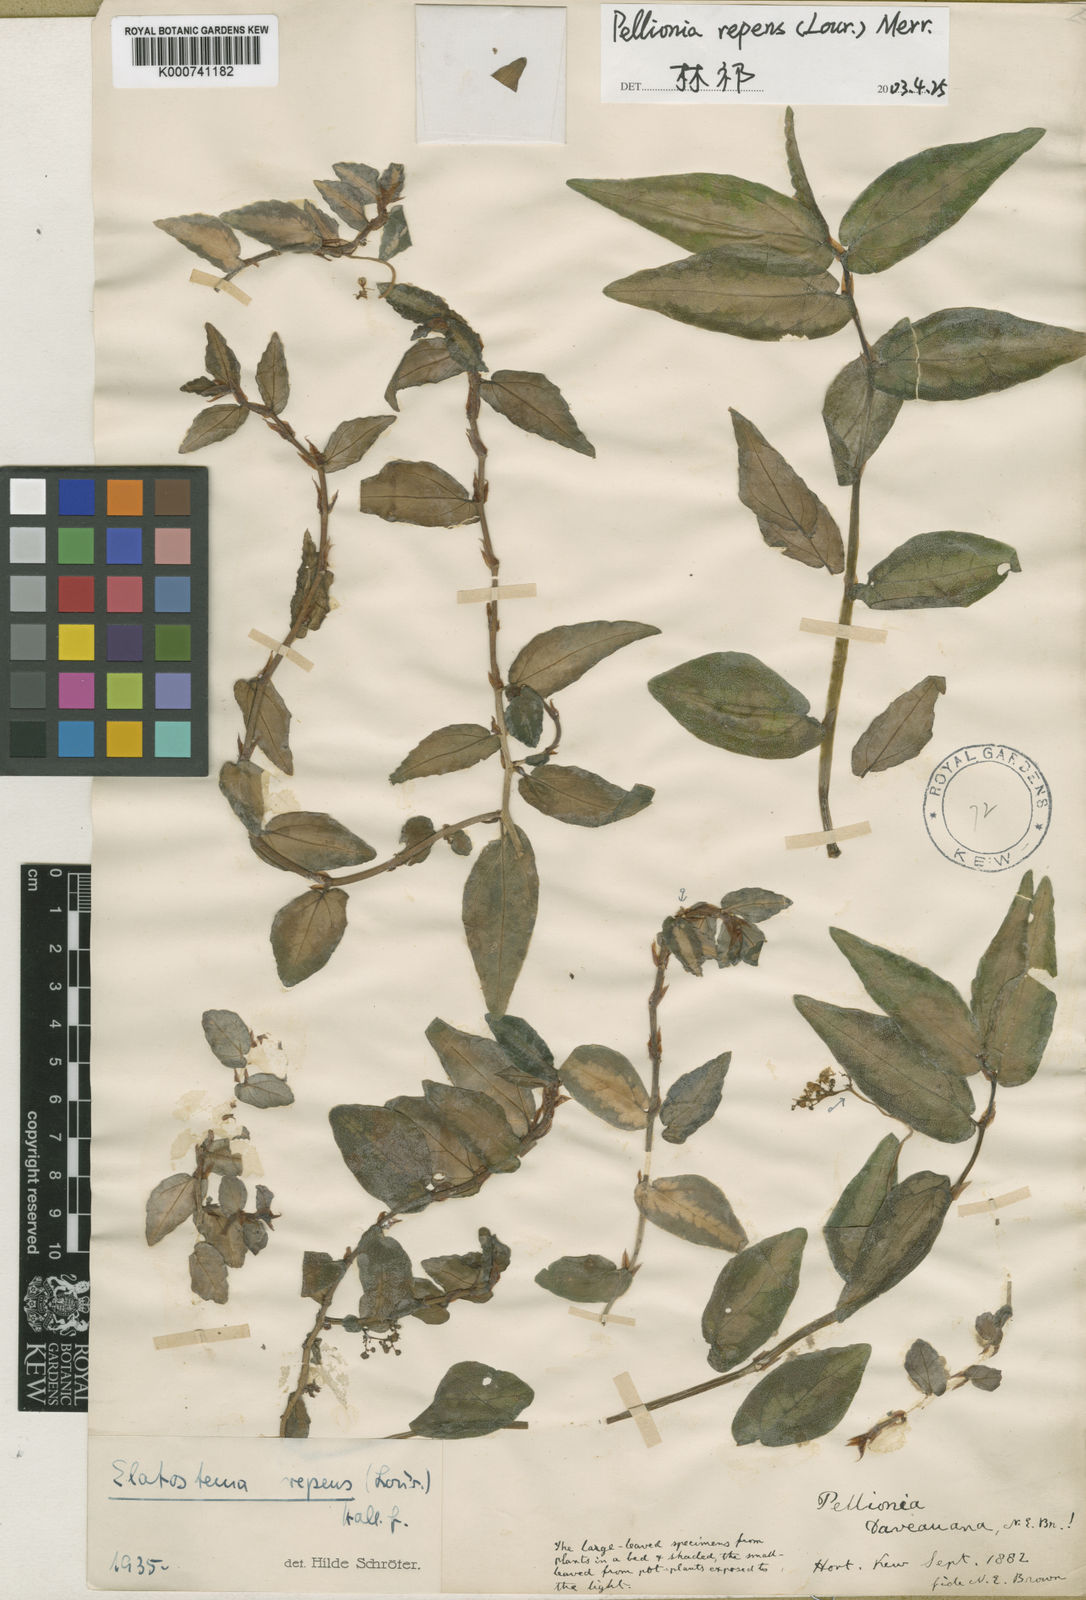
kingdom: Plantae
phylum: Tracheophyta
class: Magnoliopsida
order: Rosales
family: Urticaceae
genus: Procris
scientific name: Procris repens
